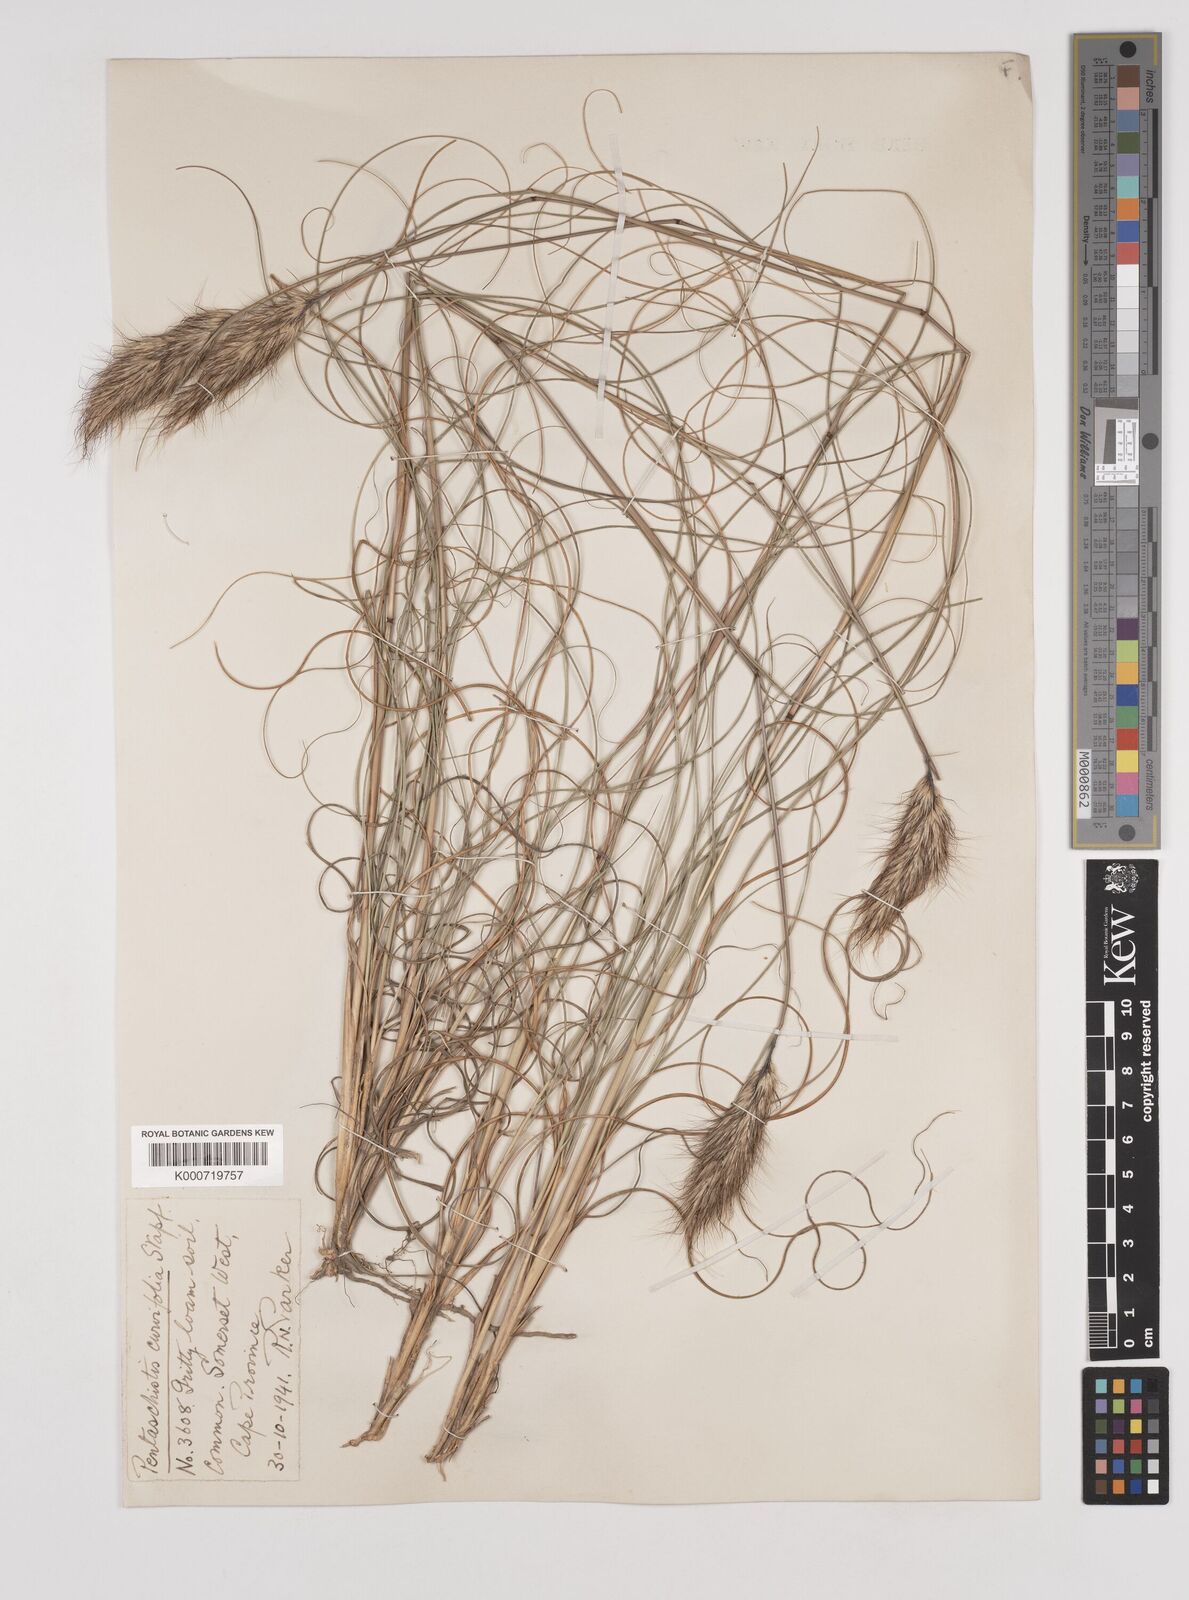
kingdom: Plantae
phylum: Tracheophyta
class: Liliopsida
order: Poales
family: Poaceae
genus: Pentameris
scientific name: Pentameris curvifolia
